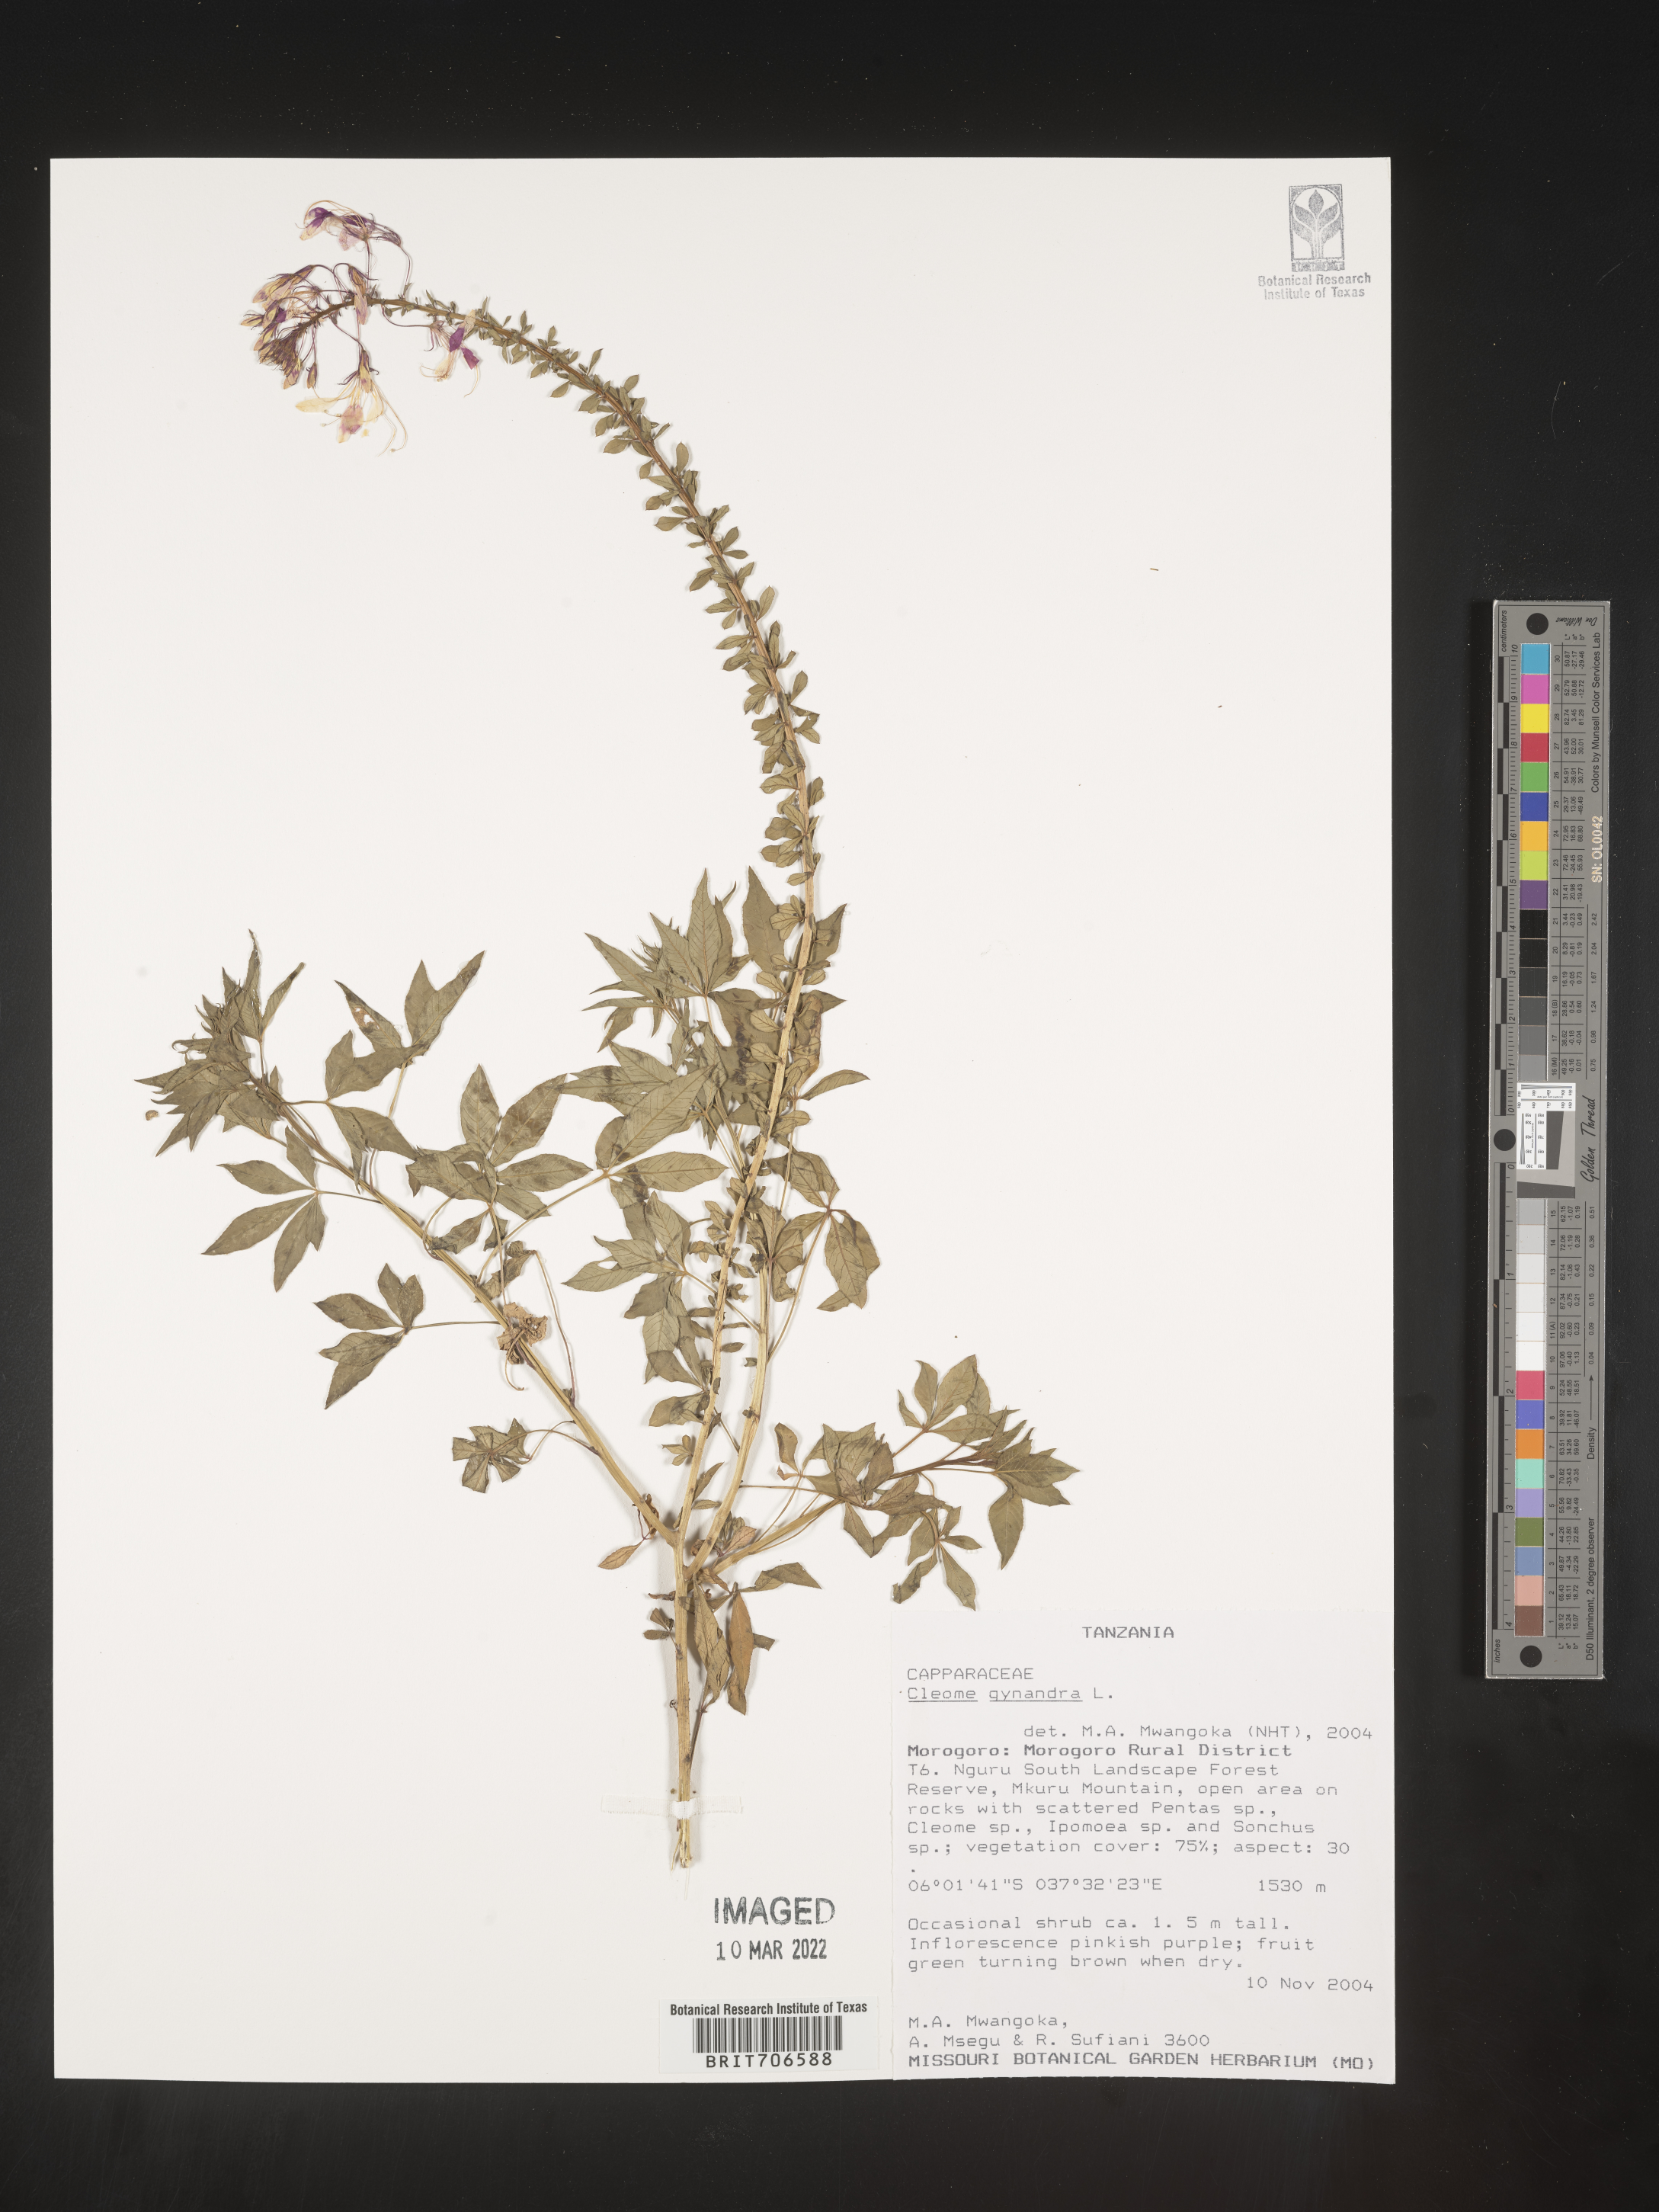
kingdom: Plantae
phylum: Tracheophyta
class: Magnoliopsida
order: Brassicales
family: Cleomaceae
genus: Cleome
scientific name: Cleome
